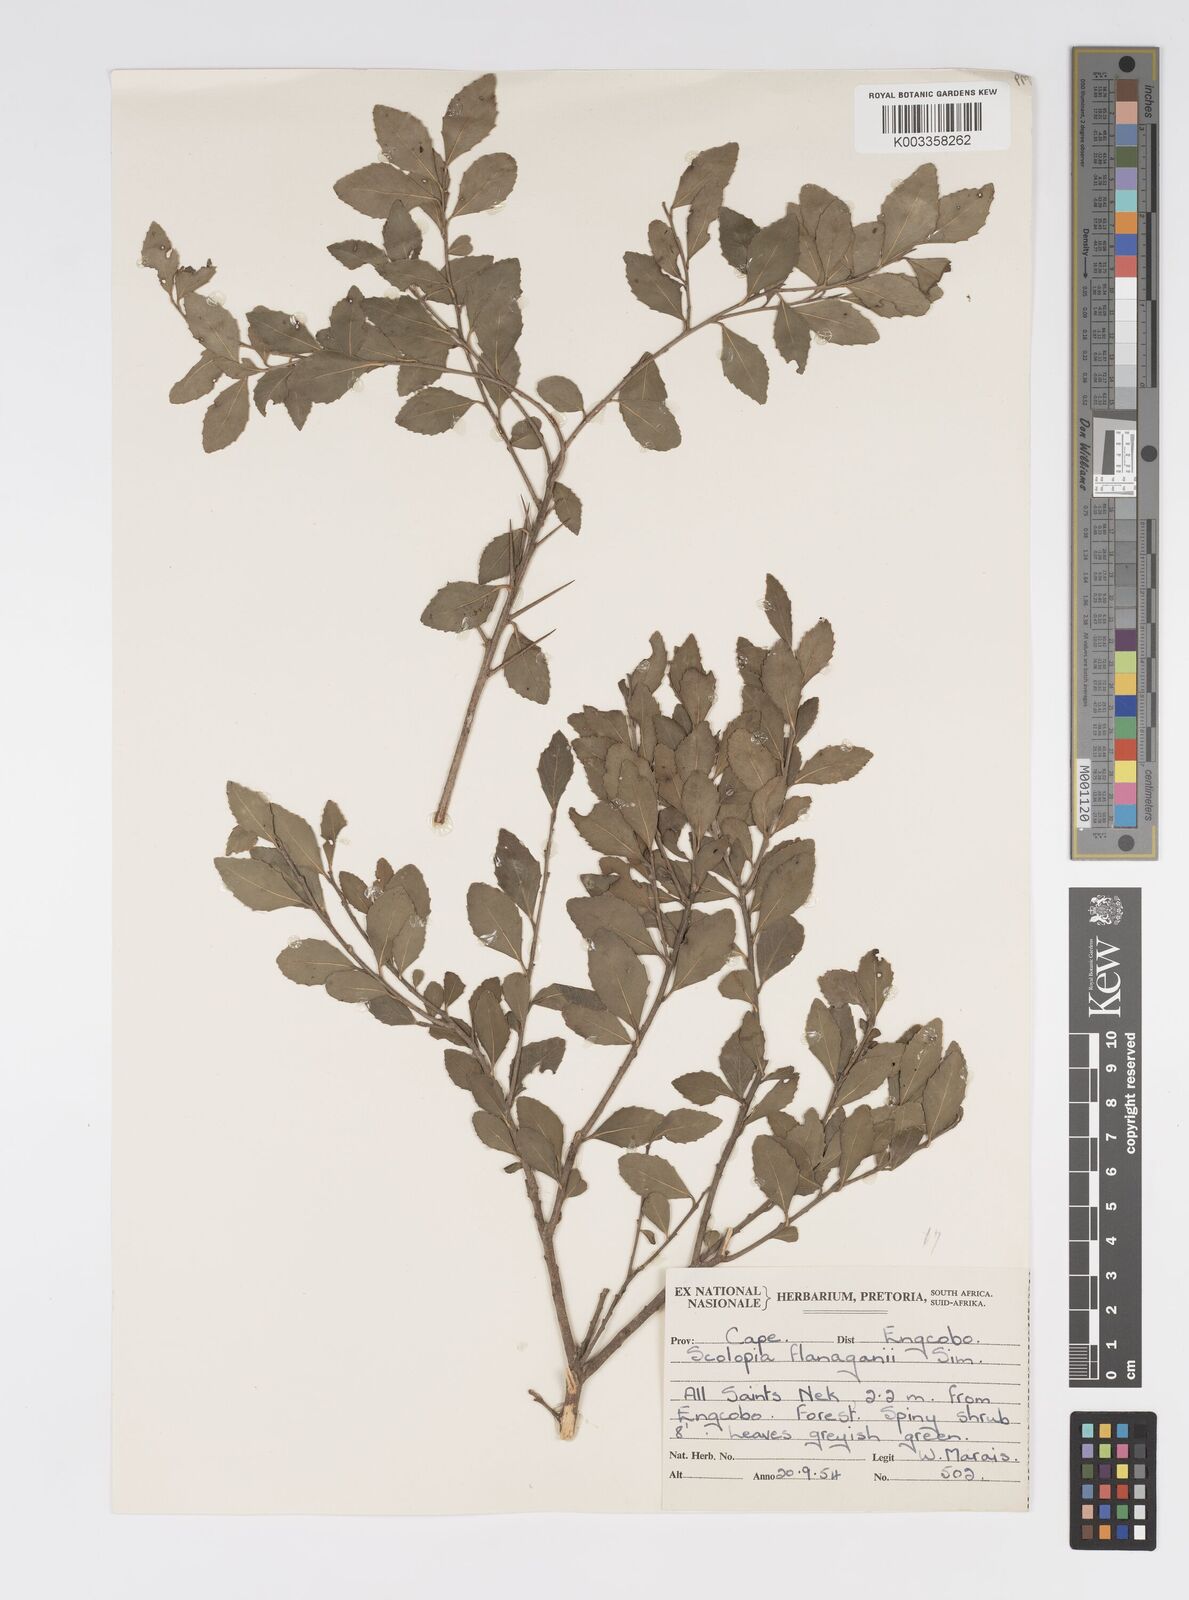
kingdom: Plantae
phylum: Tracheophyta
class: Magnoliopsida
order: Malpighiales
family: Salicaceae
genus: Scolopia
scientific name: Scolopia flanaganii
